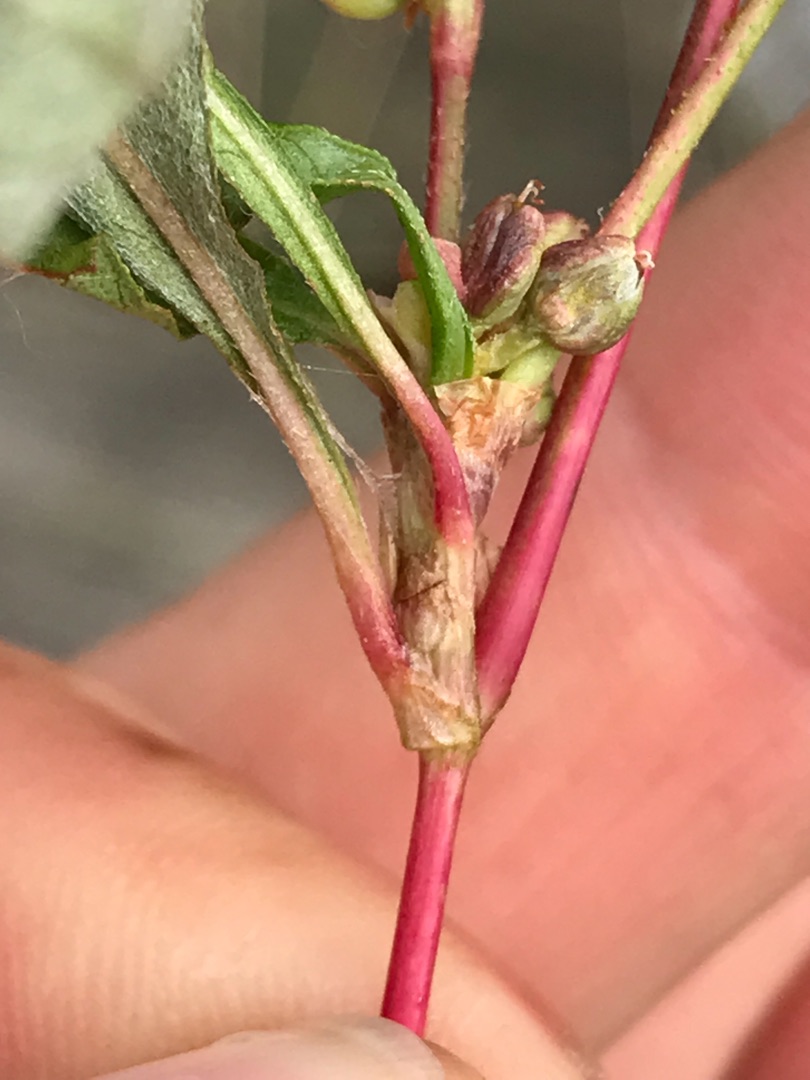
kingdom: Plantae
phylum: Tracheophyta
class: Magnoliopsida
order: Caryophyllales
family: Polygonaceae
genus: Persicaria
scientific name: Persicaria lapathifolia
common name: Knudet pileurt
